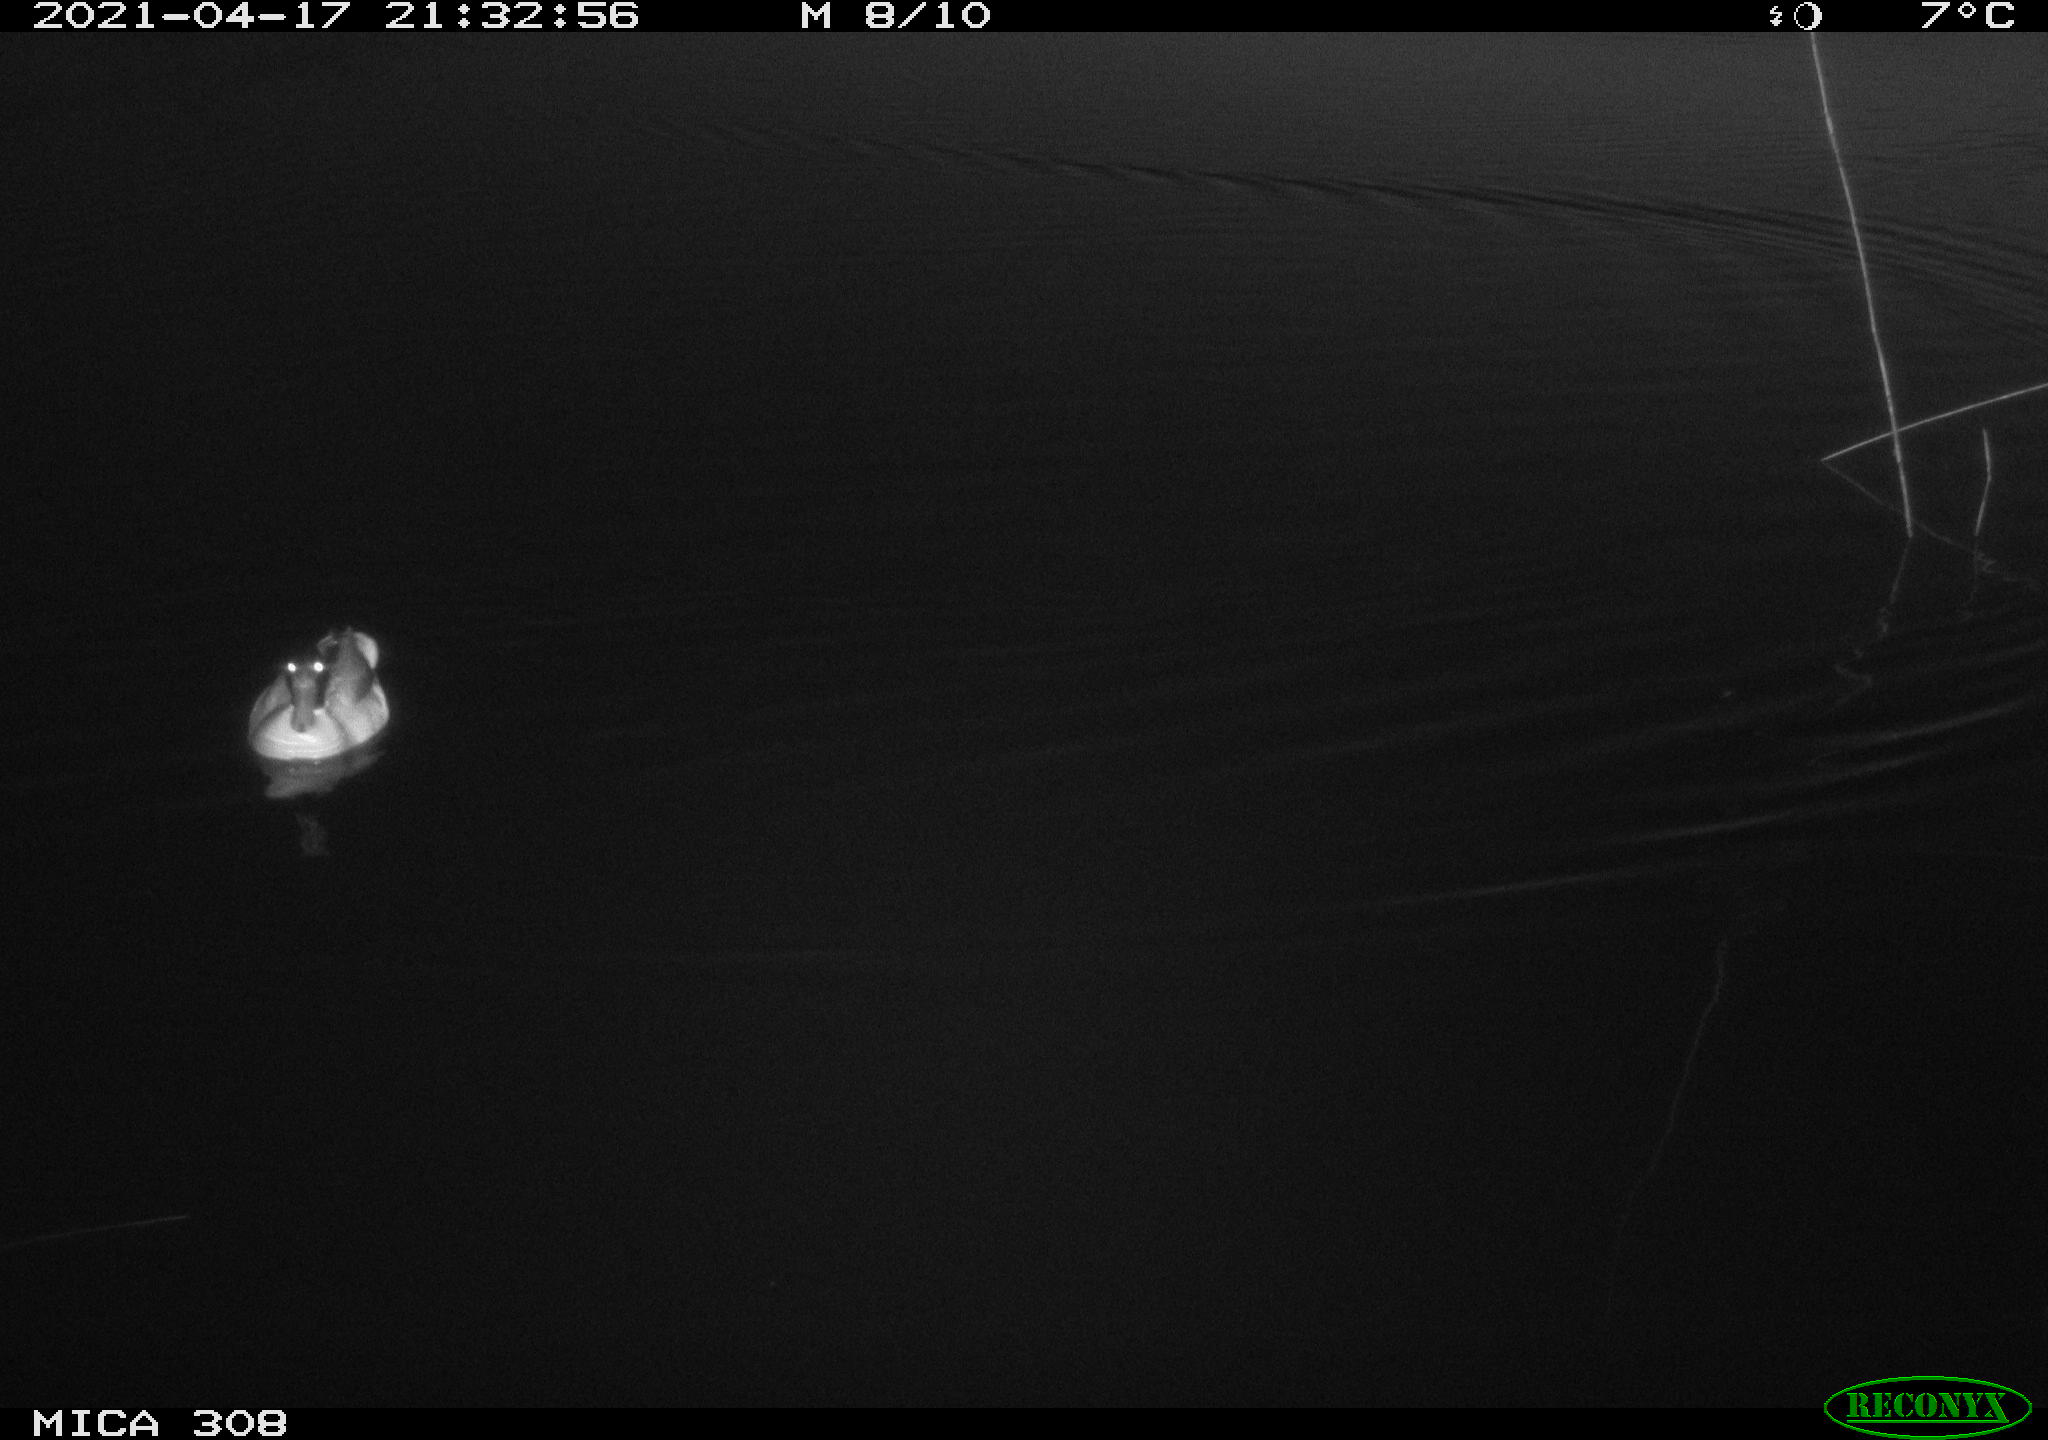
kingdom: Animalia
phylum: Chordata
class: Aves
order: Anseriformes
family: Anatidae
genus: Anas
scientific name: Anas platyrhynchos
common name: Mallard
